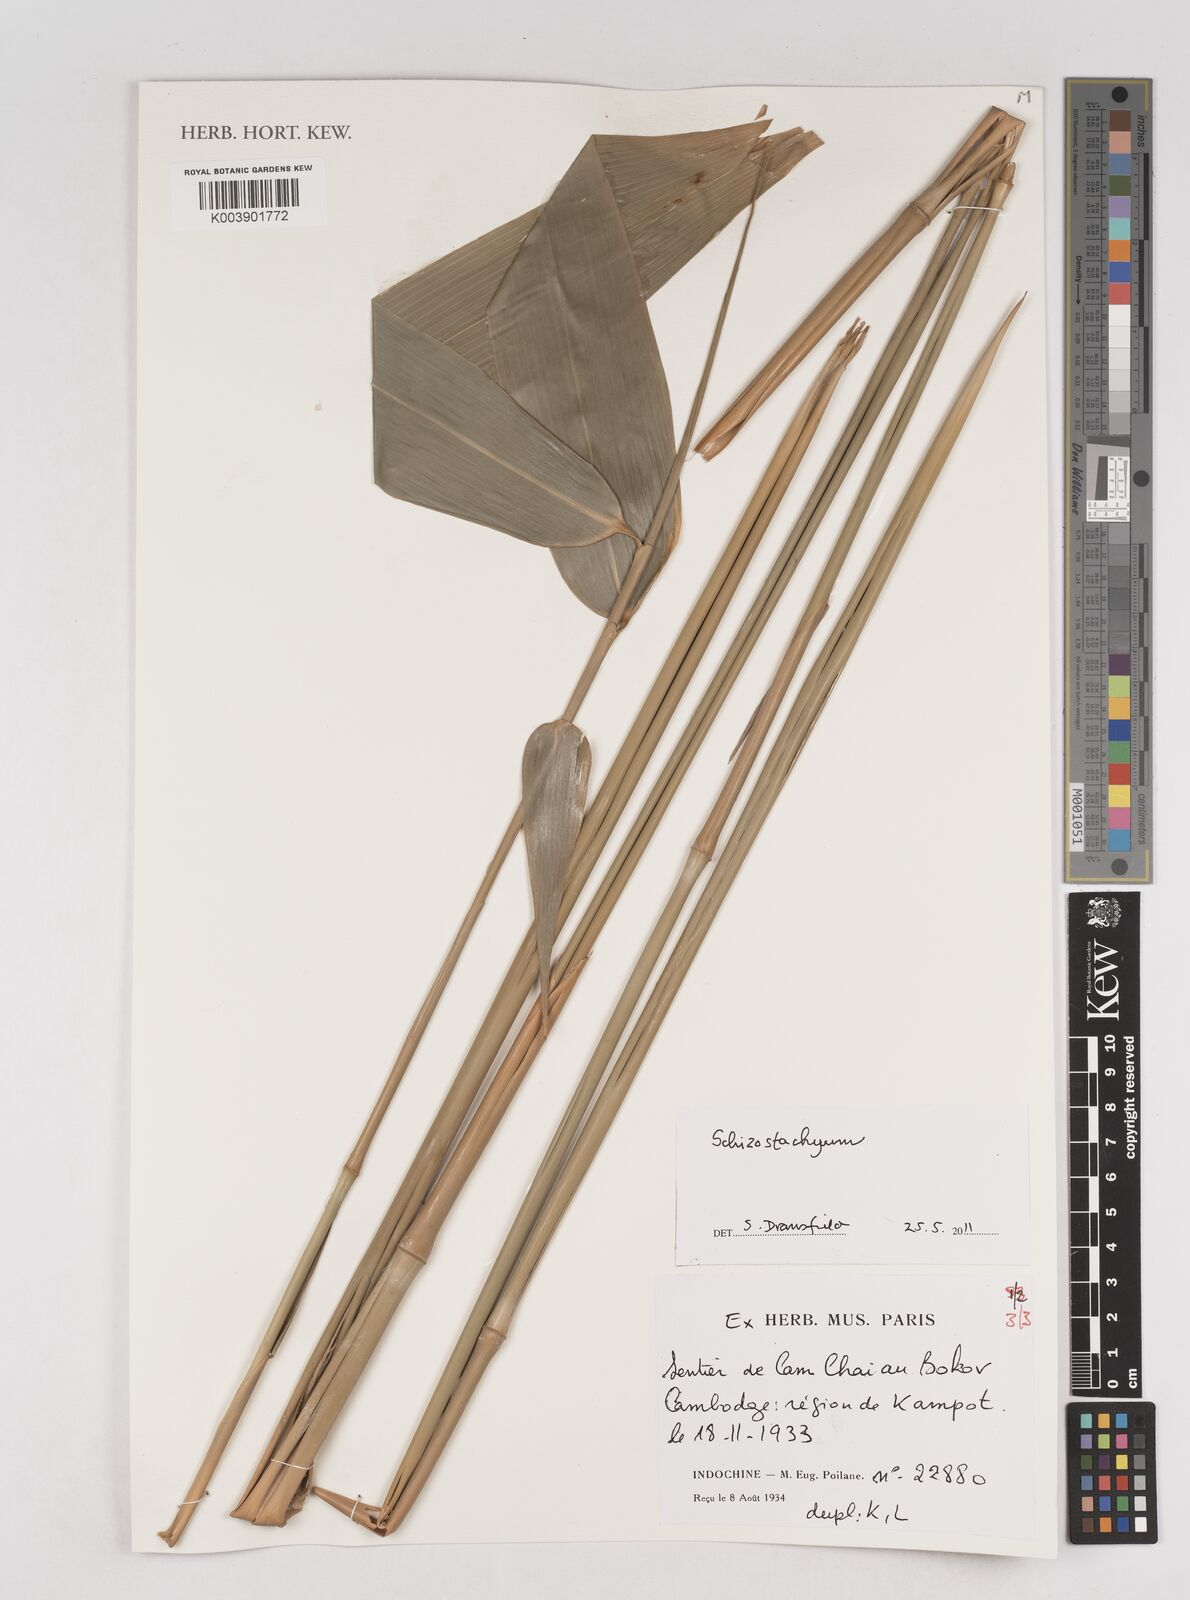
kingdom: Plantae
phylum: Tracheophyta
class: Liliopsida
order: Poales
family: Poaceae
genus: Schizostachyum
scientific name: Schizostachyum
